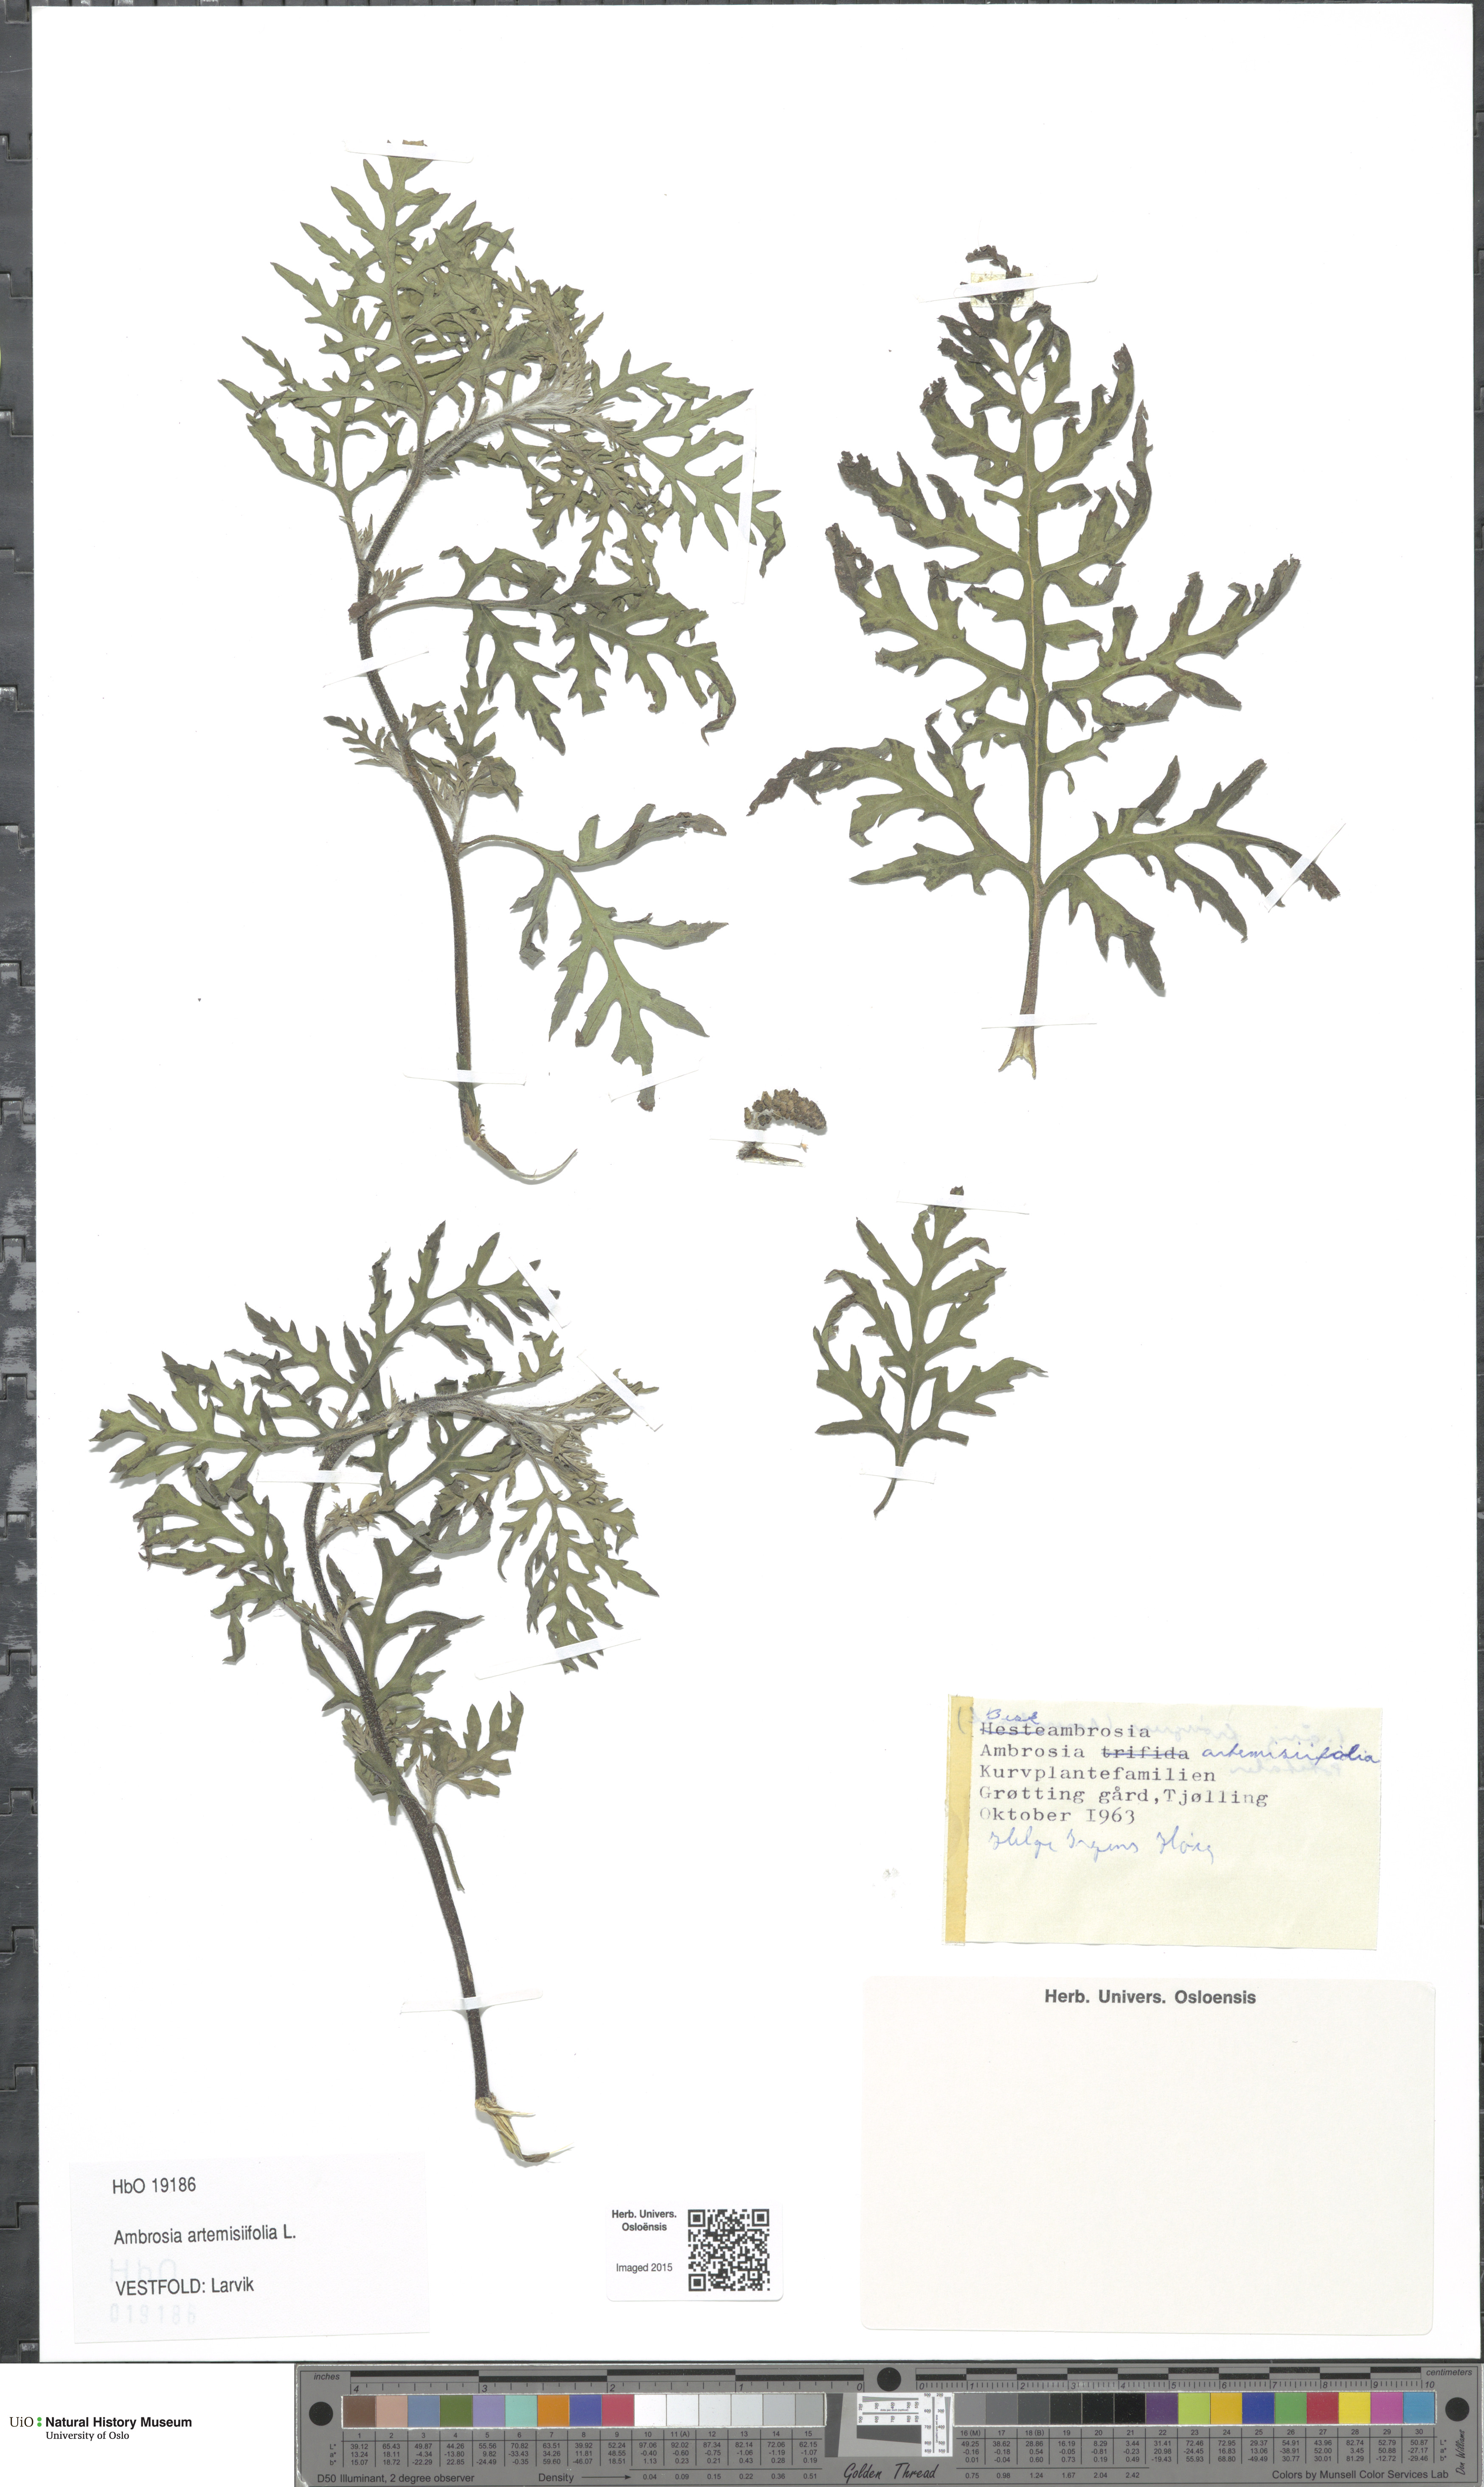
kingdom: Plantae
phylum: Tracheophyta
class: Magnoliopsida
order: Asterales
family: Asteraceae
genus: Ambrosia
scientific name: Ambrosia artemisiifolia
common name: Annual ragweed
